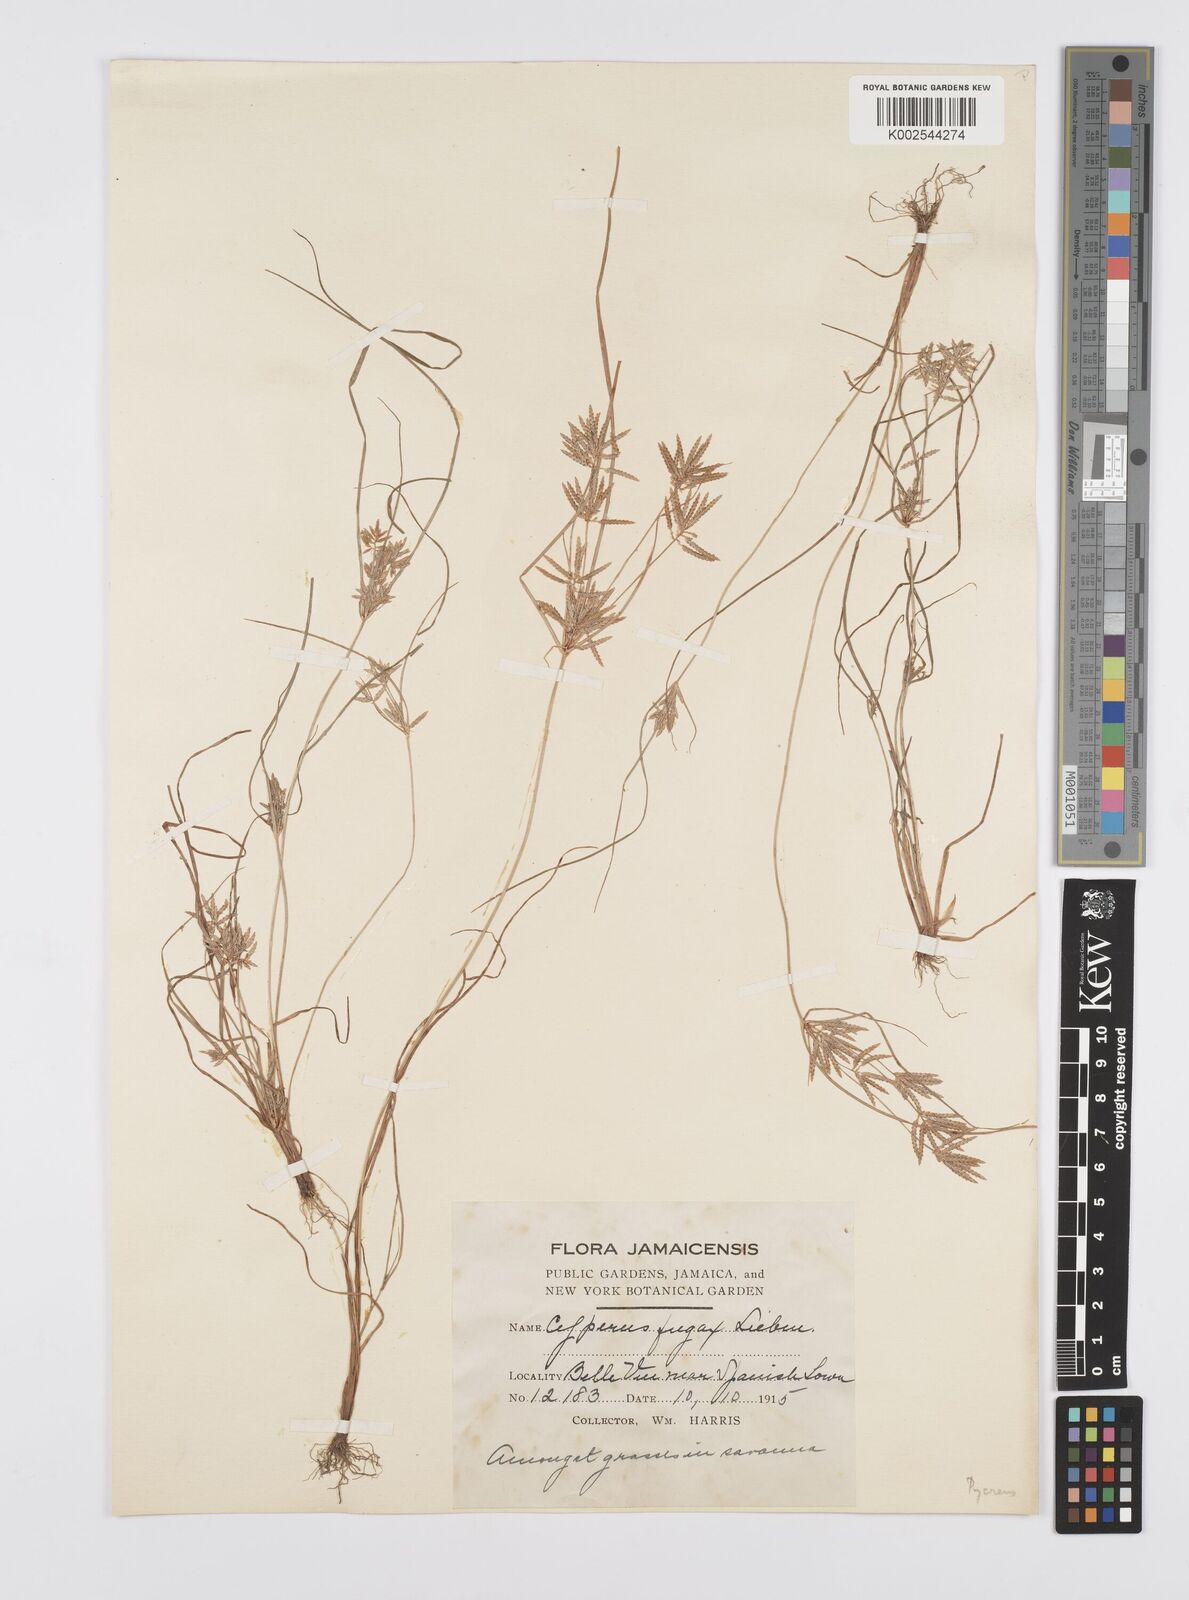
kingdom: Plantae
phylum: Tracheophyta
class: Liliopsida
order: Poales
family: Cyperaceae
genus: Cyperus
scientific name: Cyperus polystachyos
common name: Bunchy flat sedge
